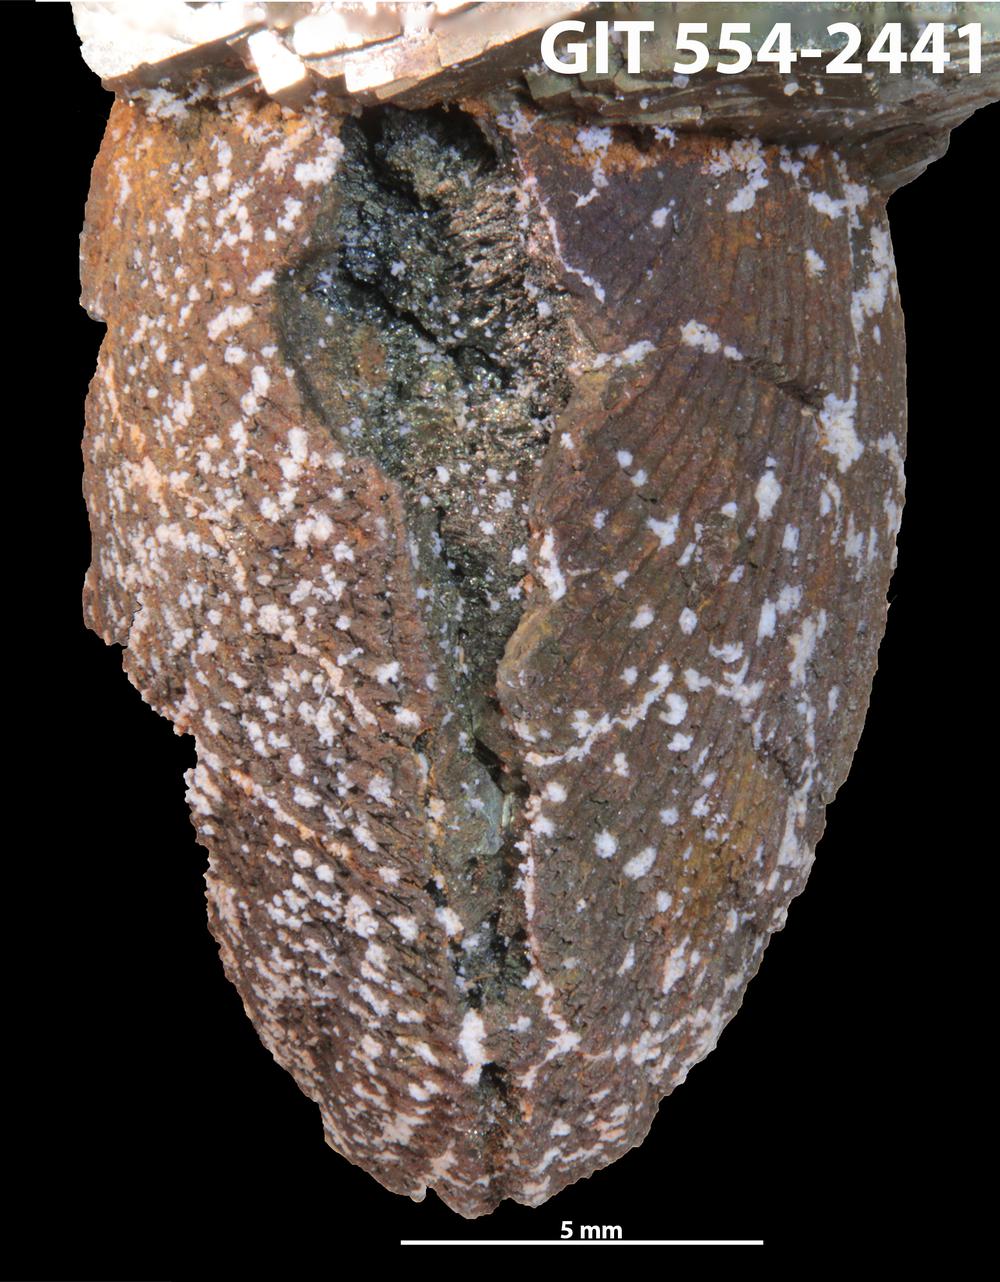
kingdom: Animalia
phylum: Brachiopoda
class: Rhynchonellata
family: Rhipidomellidae
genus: Mendacella
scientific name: Mendacella Rhipidomelloides phaseola
